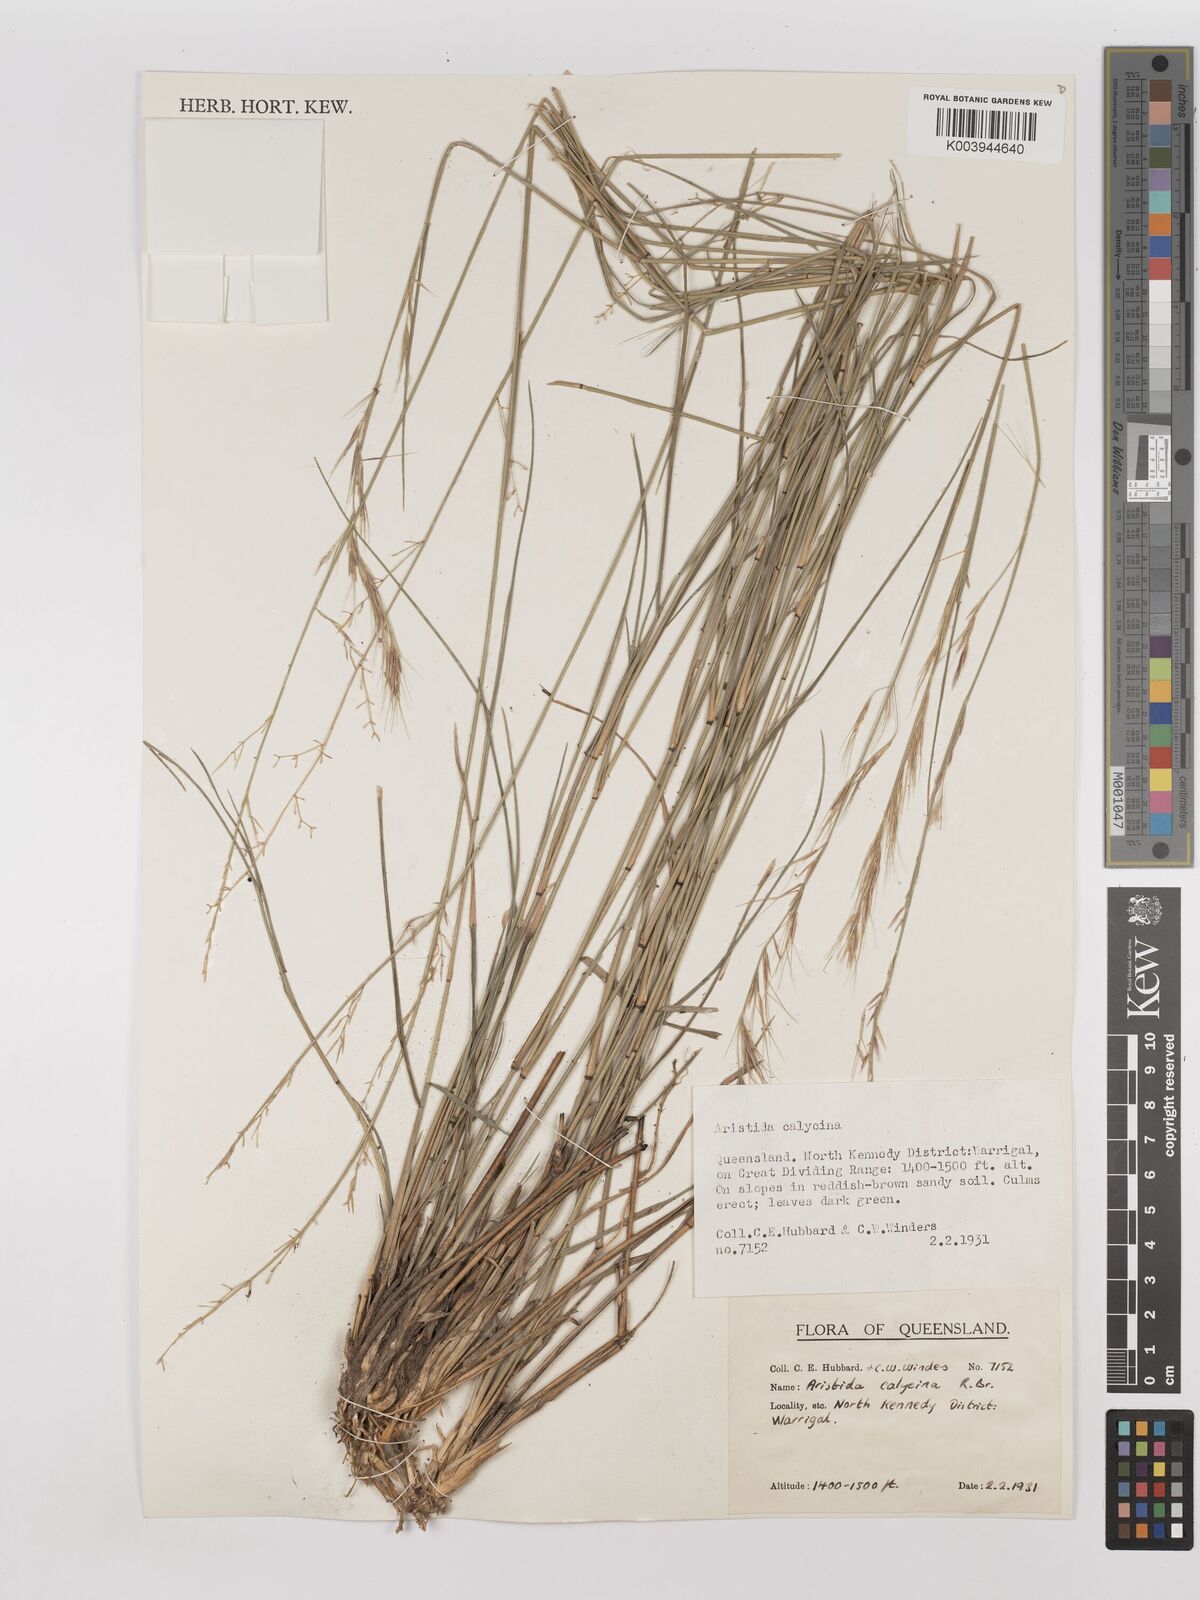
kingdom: Plantae
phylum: Tracheophyta
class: Liliopsida
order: Poales
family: Poaceae
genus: Aristida
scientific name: Aristida calycina
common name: Dark wire grass
